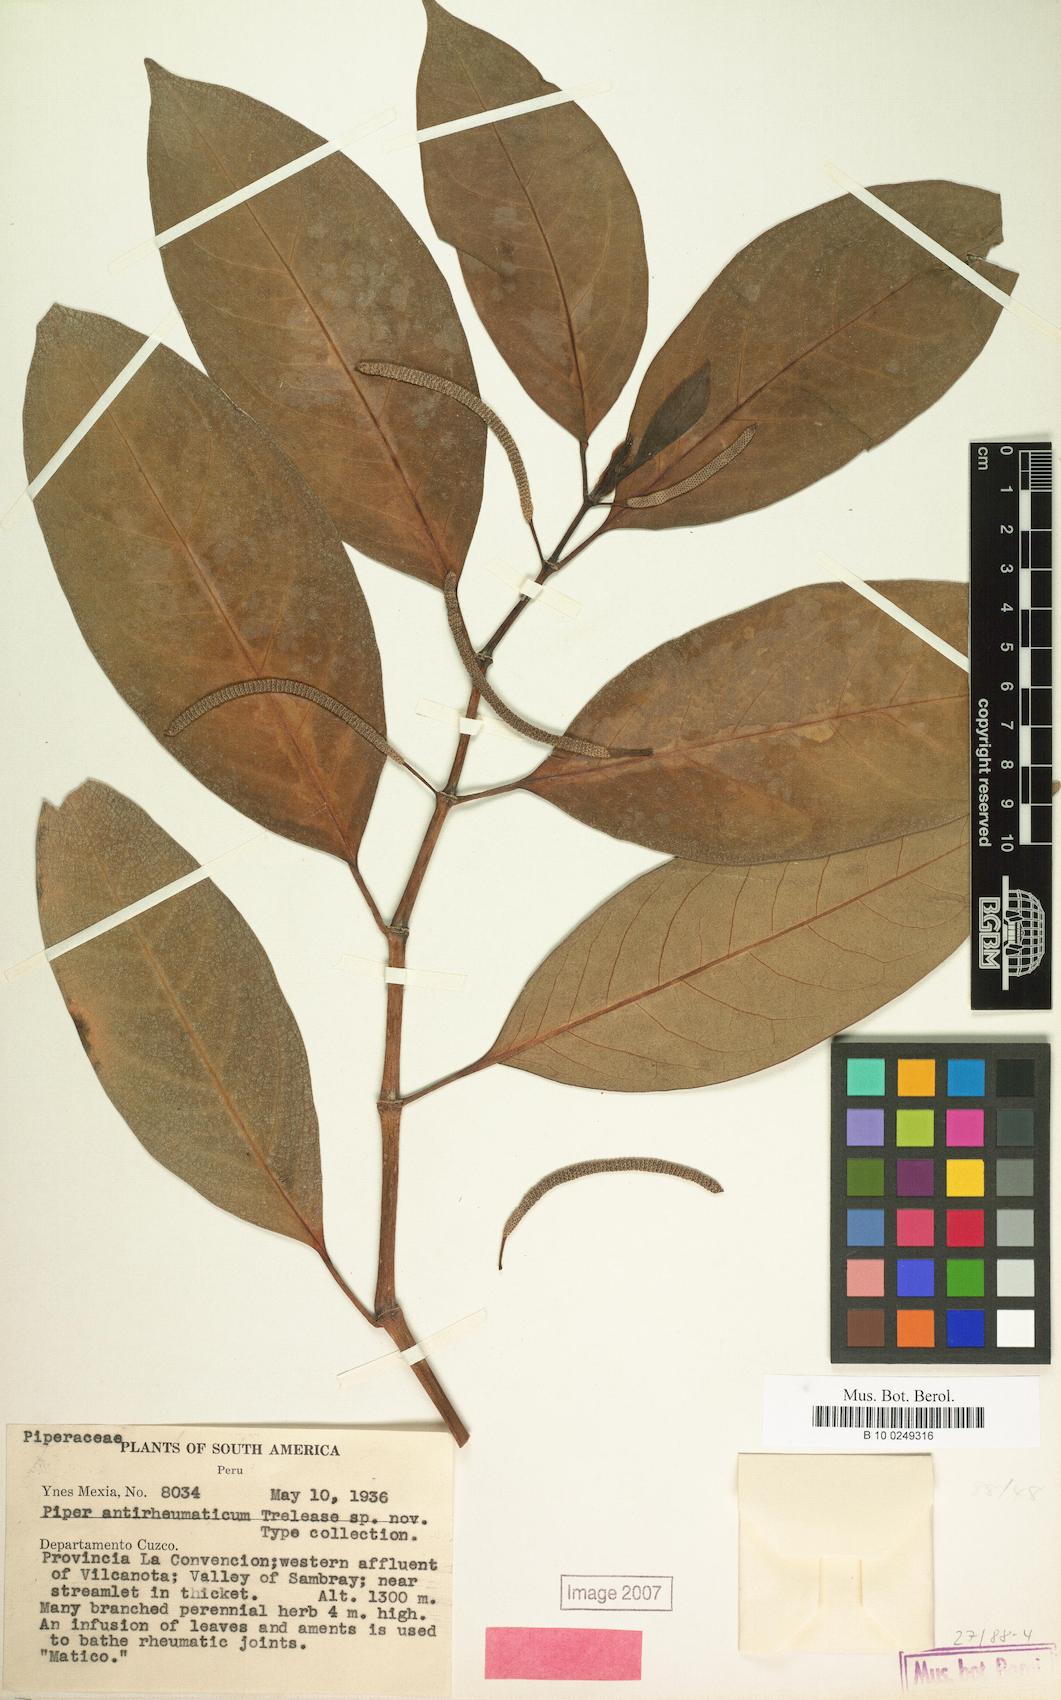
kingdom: Plantae
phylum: Tracheophyta
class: Magnoliopsida
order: Piperales
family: Piperaceae
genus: Piper
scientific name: Piper
